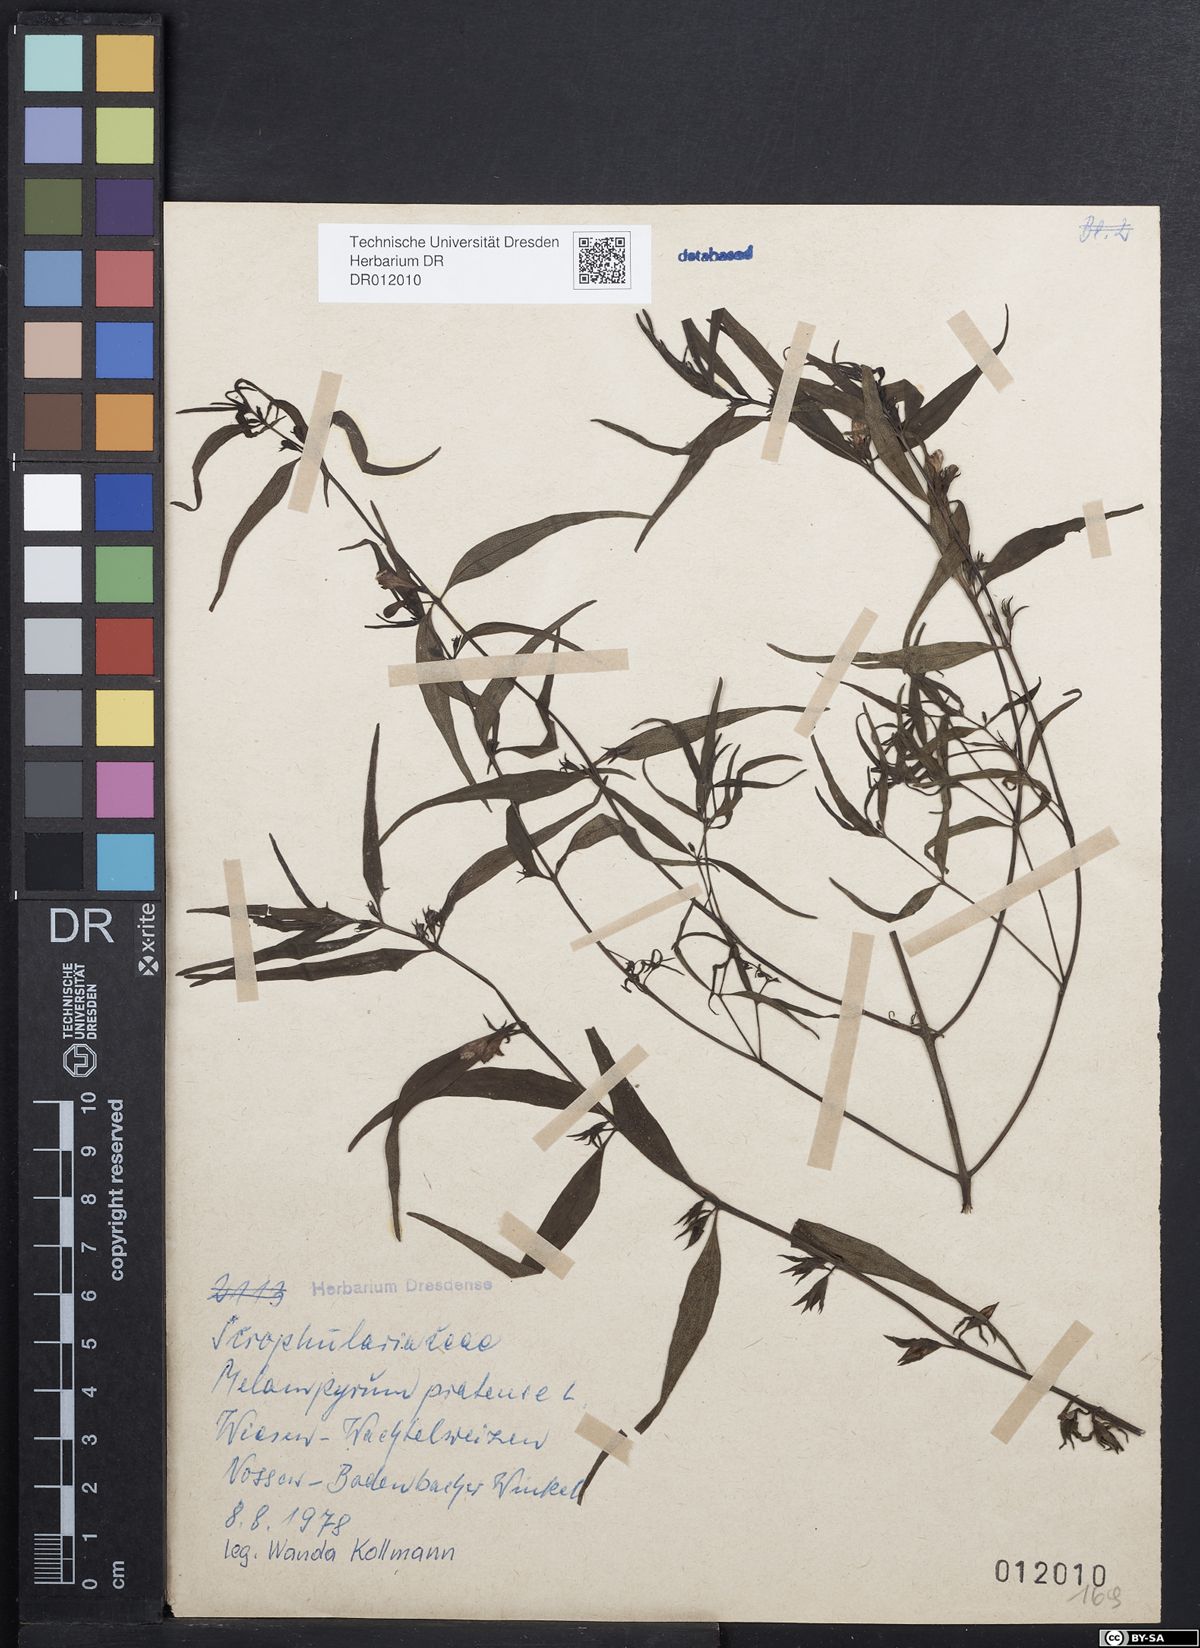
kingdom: Plantae
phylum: Tracheophyta
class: Magnoliopsida
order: Lamiales
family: Orobanchaceae
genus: Melampyrum
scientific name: Melampyrum pratense
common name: Common cow-wheat
